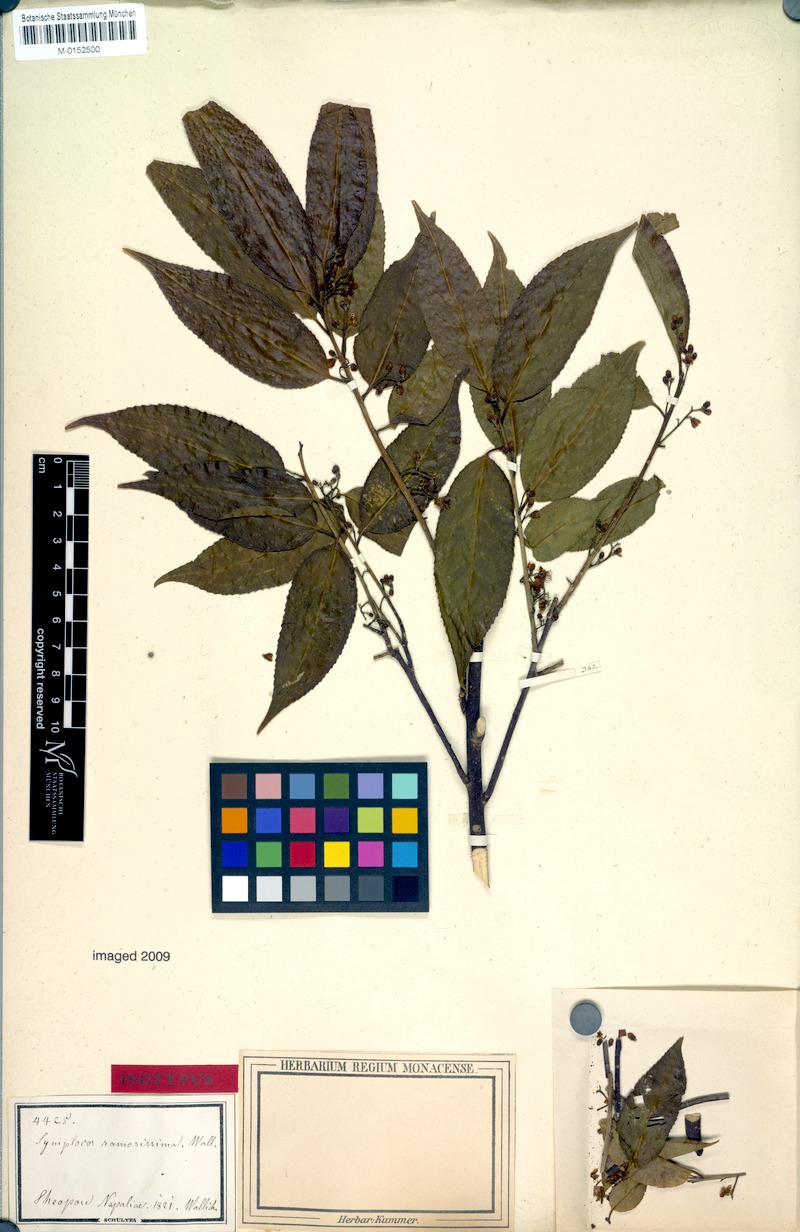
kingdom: Plantae
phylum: Tracheophyta
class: Magnoliopsida
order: Ericales
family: Symplocaceae
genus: Symplocos
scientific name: Symplocos ramosissima
